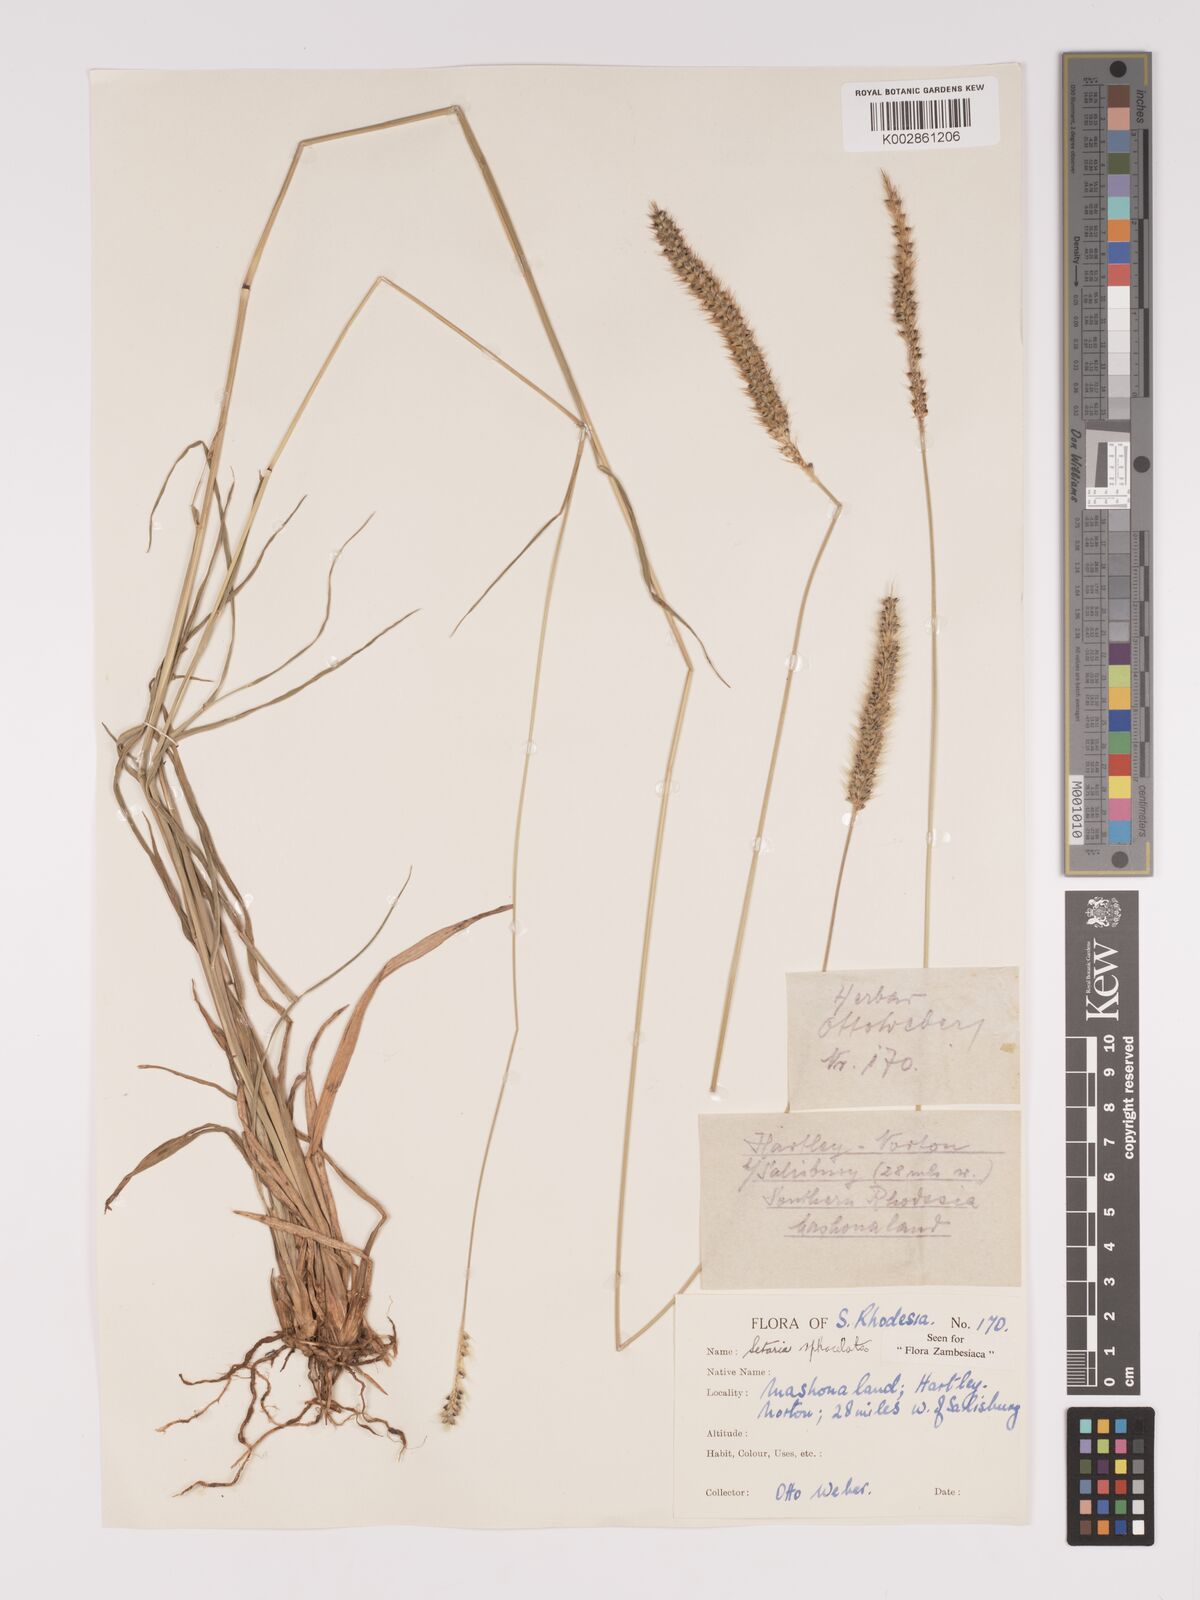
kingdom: Plantae
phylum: Tracheophyta
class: Liliopsida
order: Poales
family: Poaceae
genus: Setaria
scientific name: Setaria sphacelata
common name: African bristlegrass
